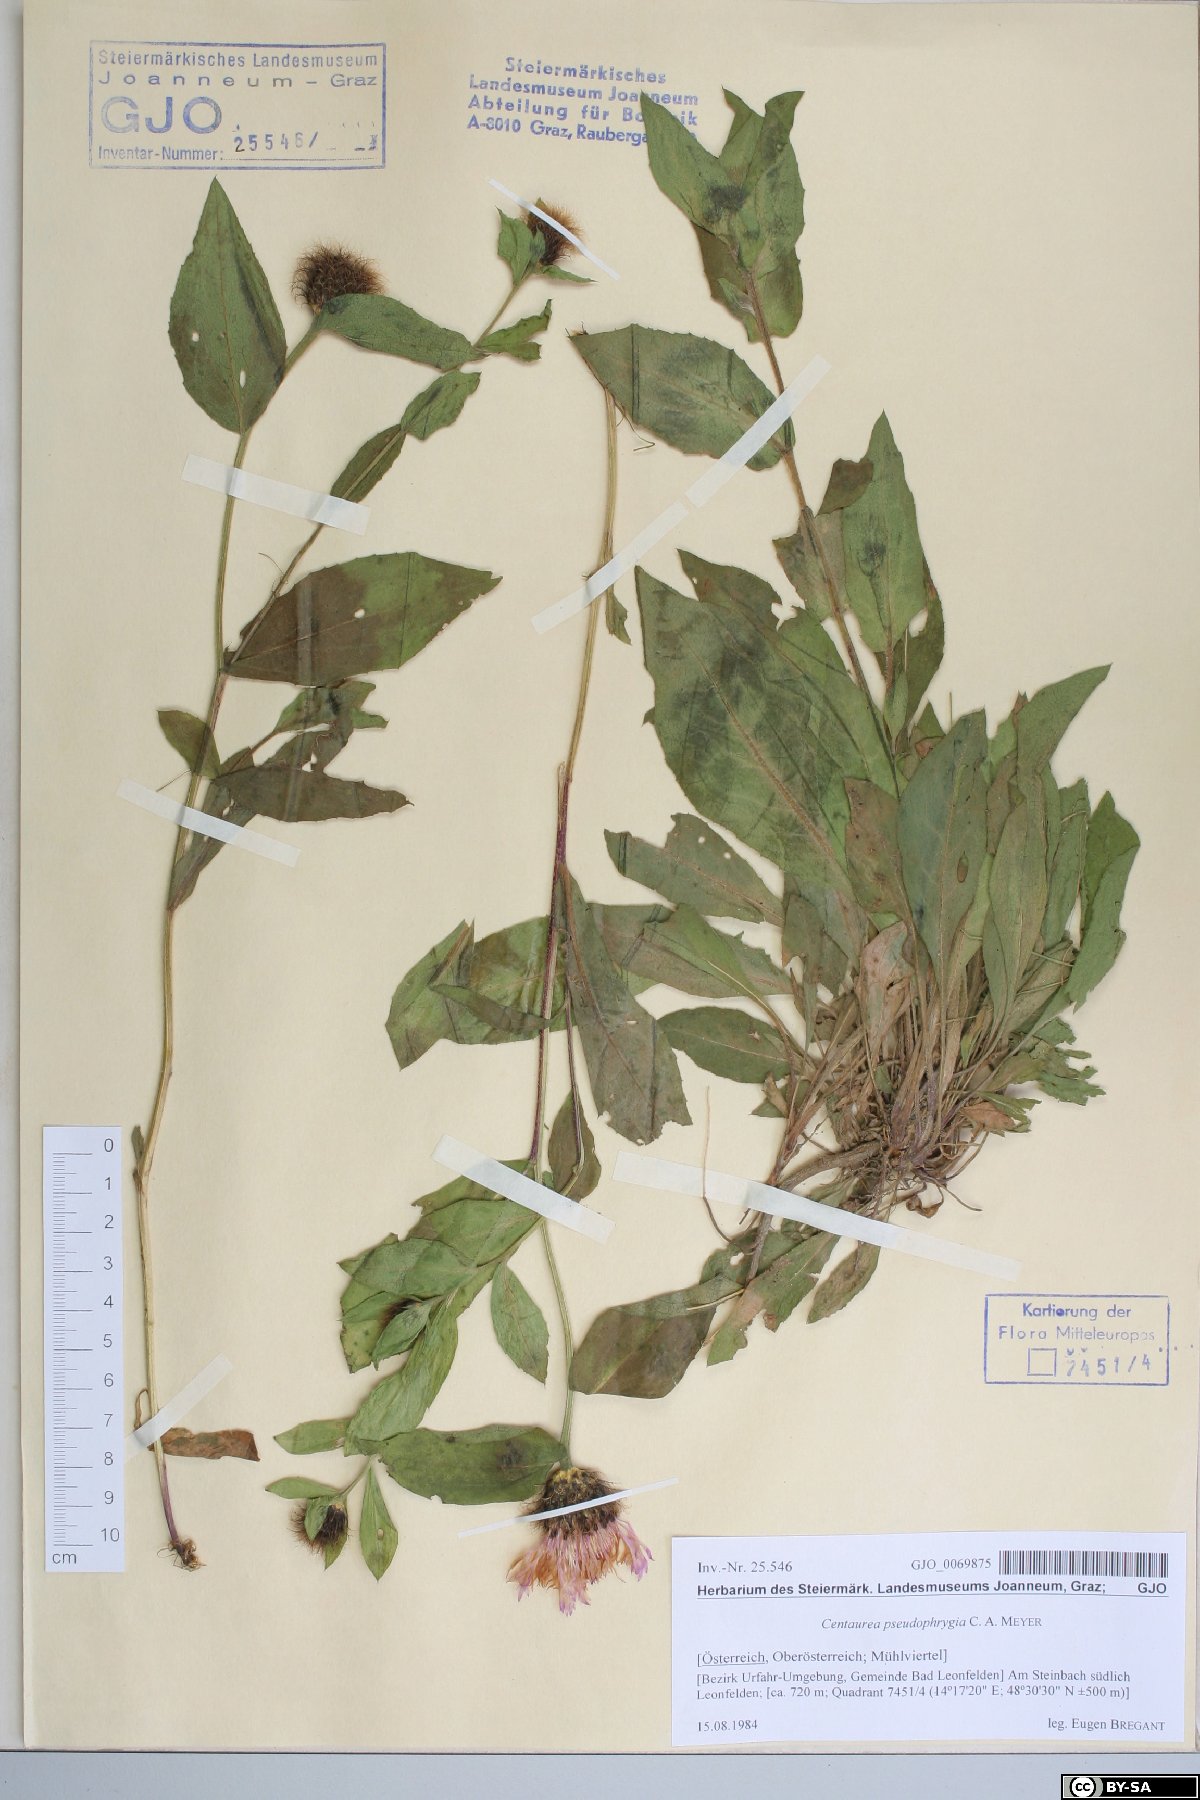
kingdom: Plantae
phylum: Tracheophyta
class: Magnoliopsida
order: Asterales
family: Asteraceae
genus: Centaurea
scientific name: Centaurea pseudophrygia
